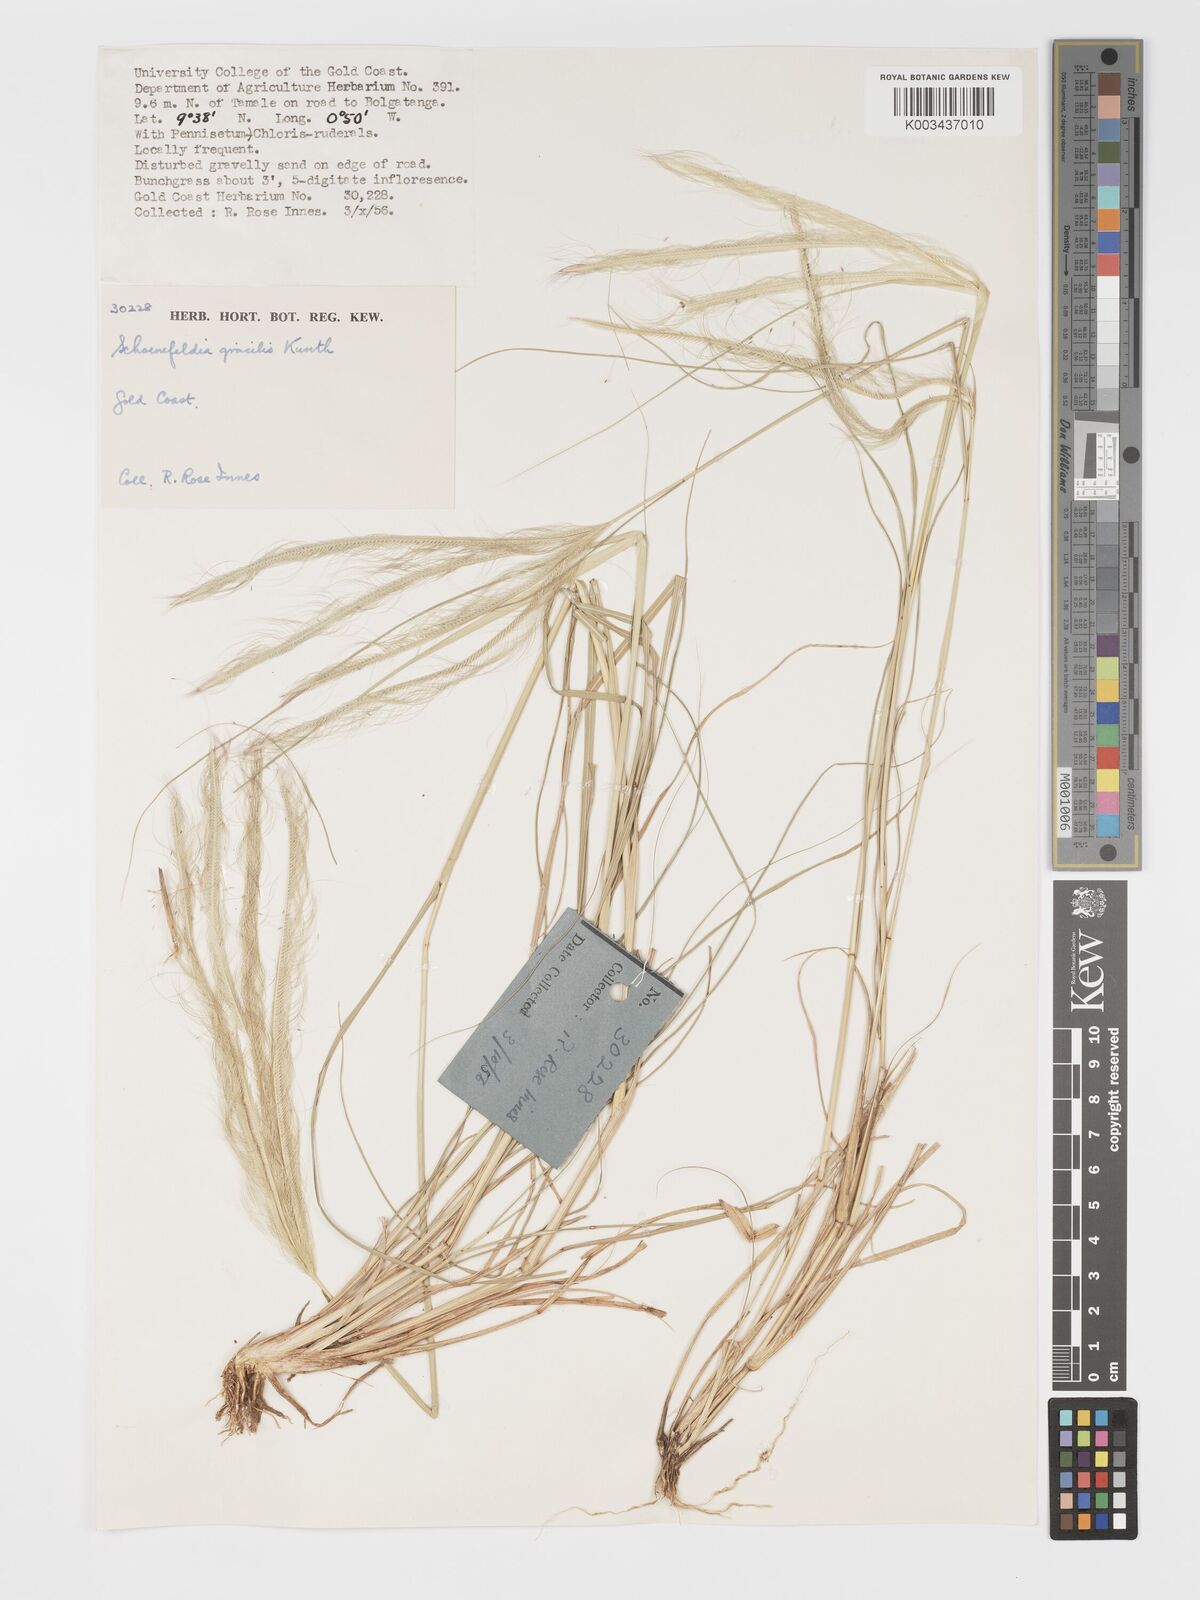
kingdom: Plantae
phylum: Tracheophyta
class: Liliopsida
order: Poales
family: Poaceae
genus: Schoenefeldia
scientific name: Schoenefeldia gracilis
